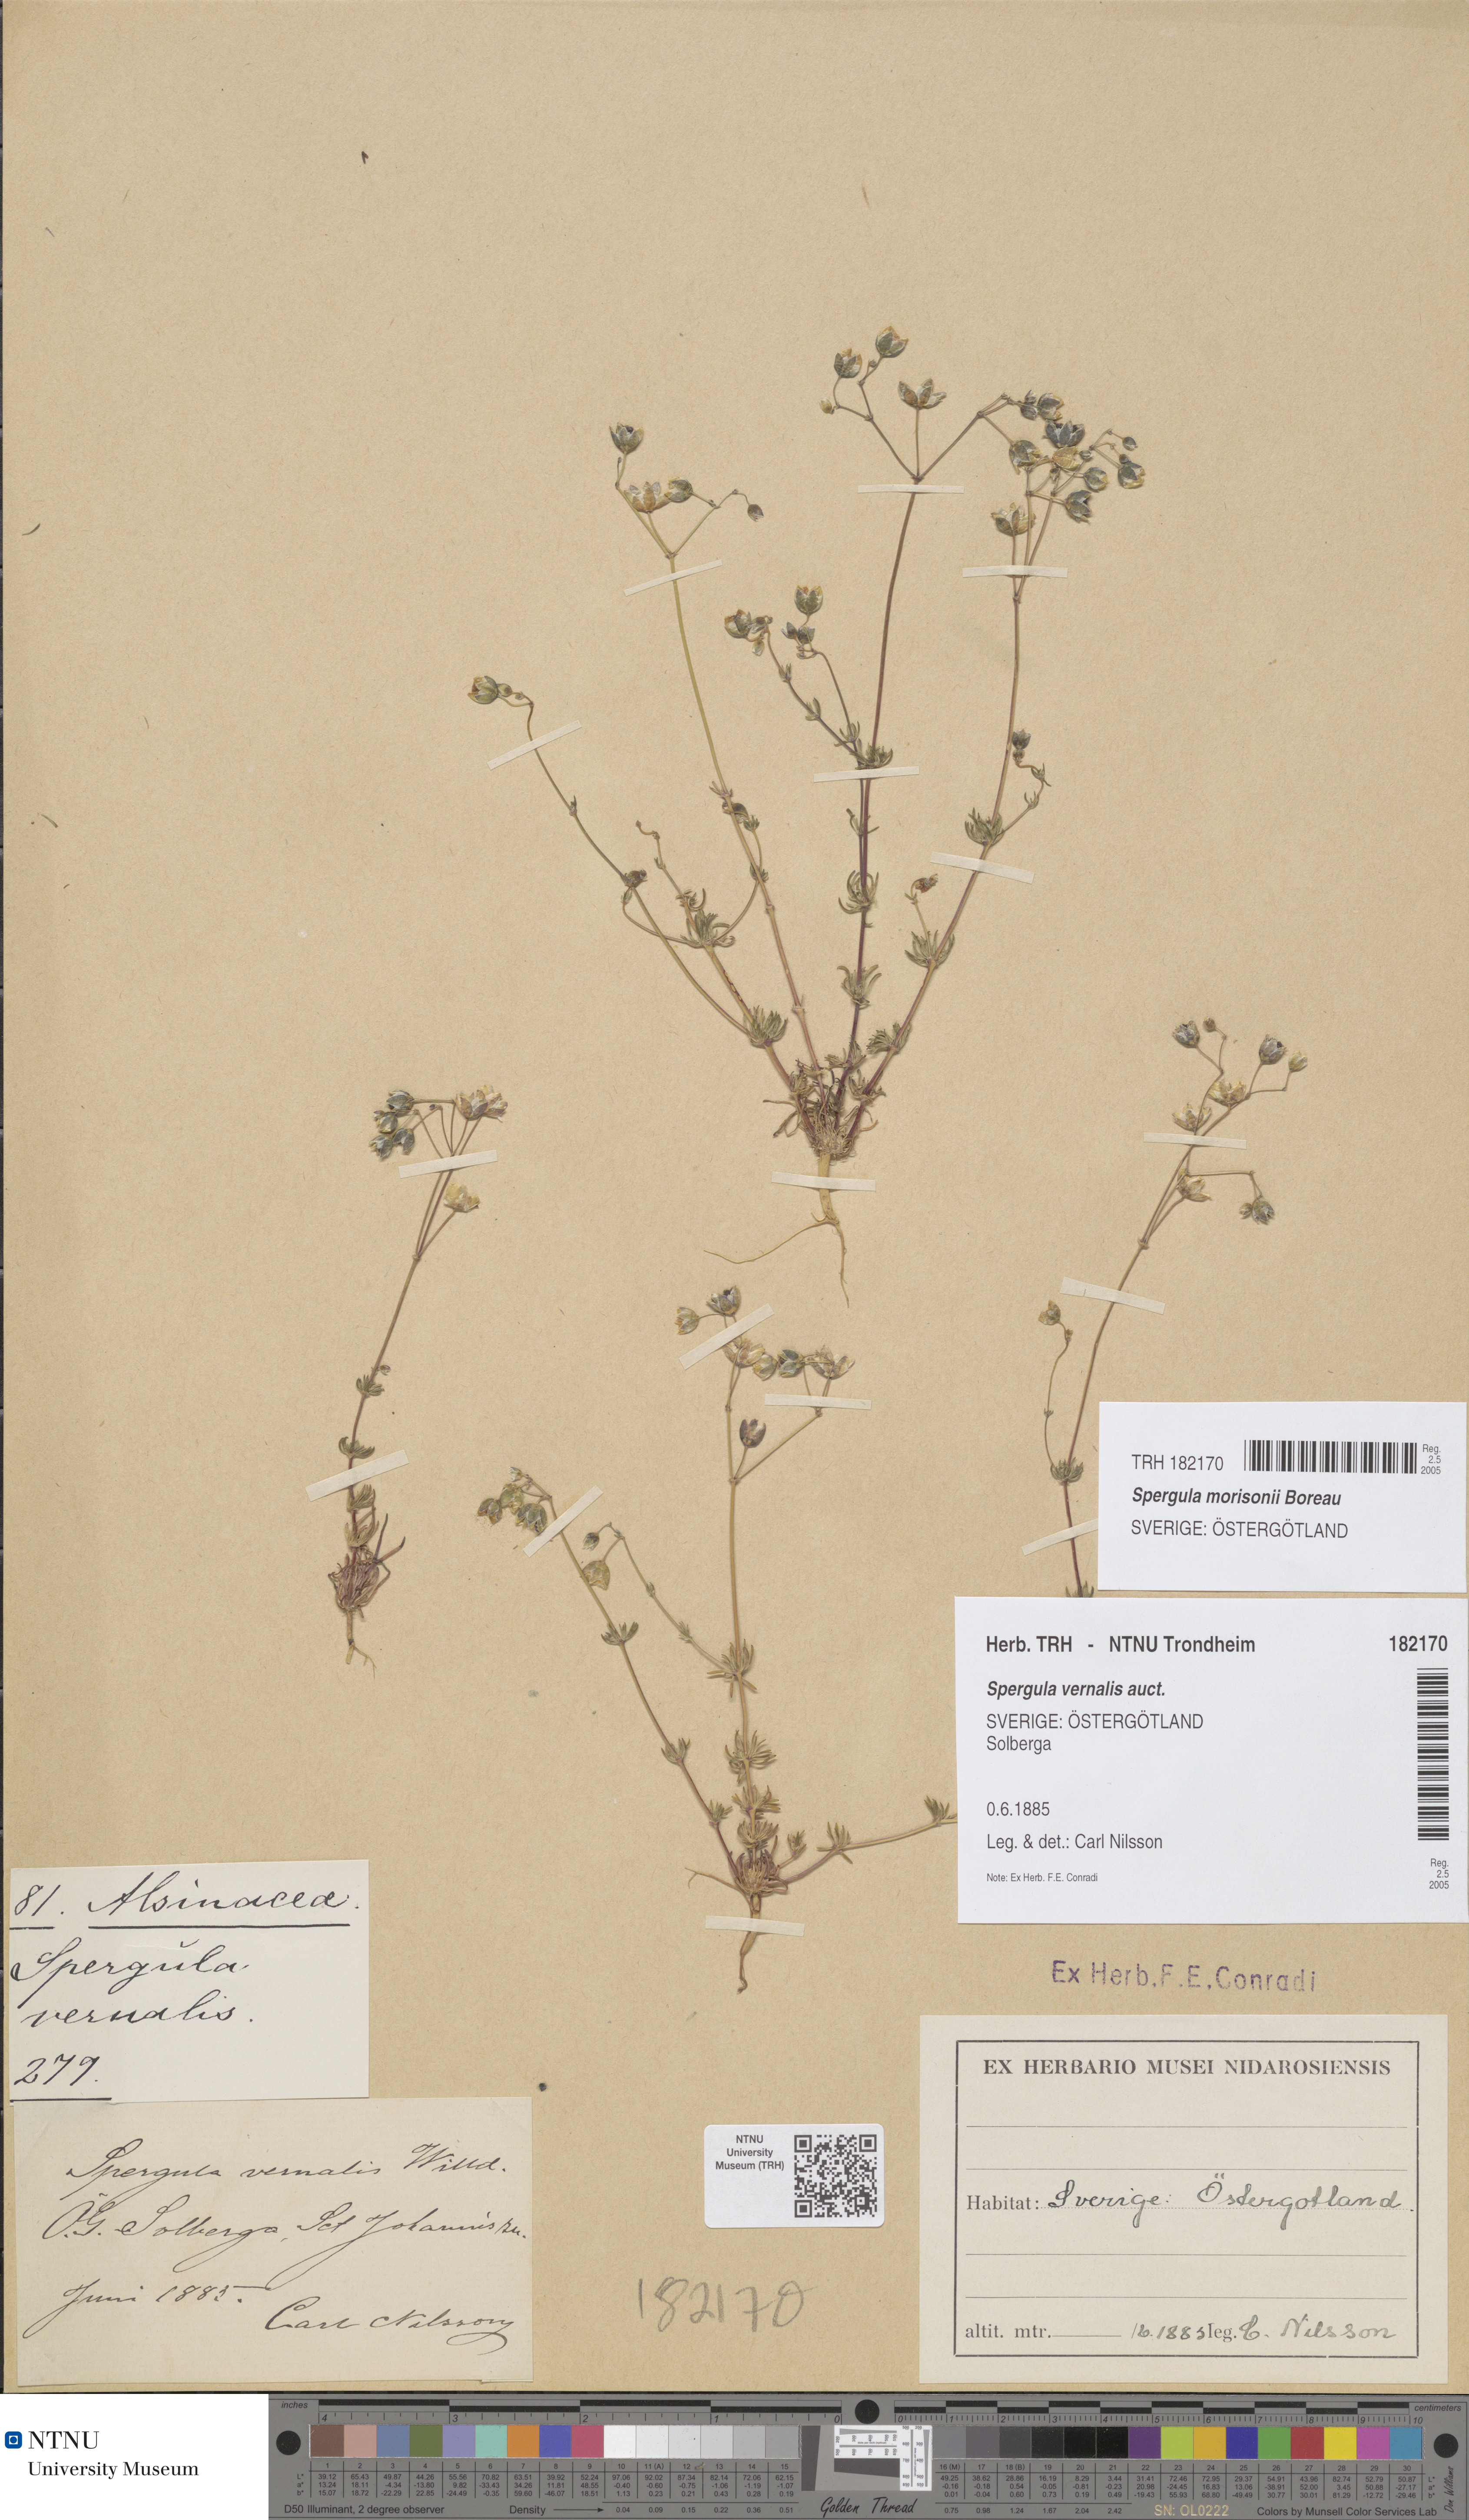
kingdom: Plantae
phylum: Tracheophyta
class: Magnoliopsida
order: Caryophyllales
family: Caryophyllaceae
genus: Spergula
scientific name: Spergula morisonii
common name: Pearlwort spurrey
